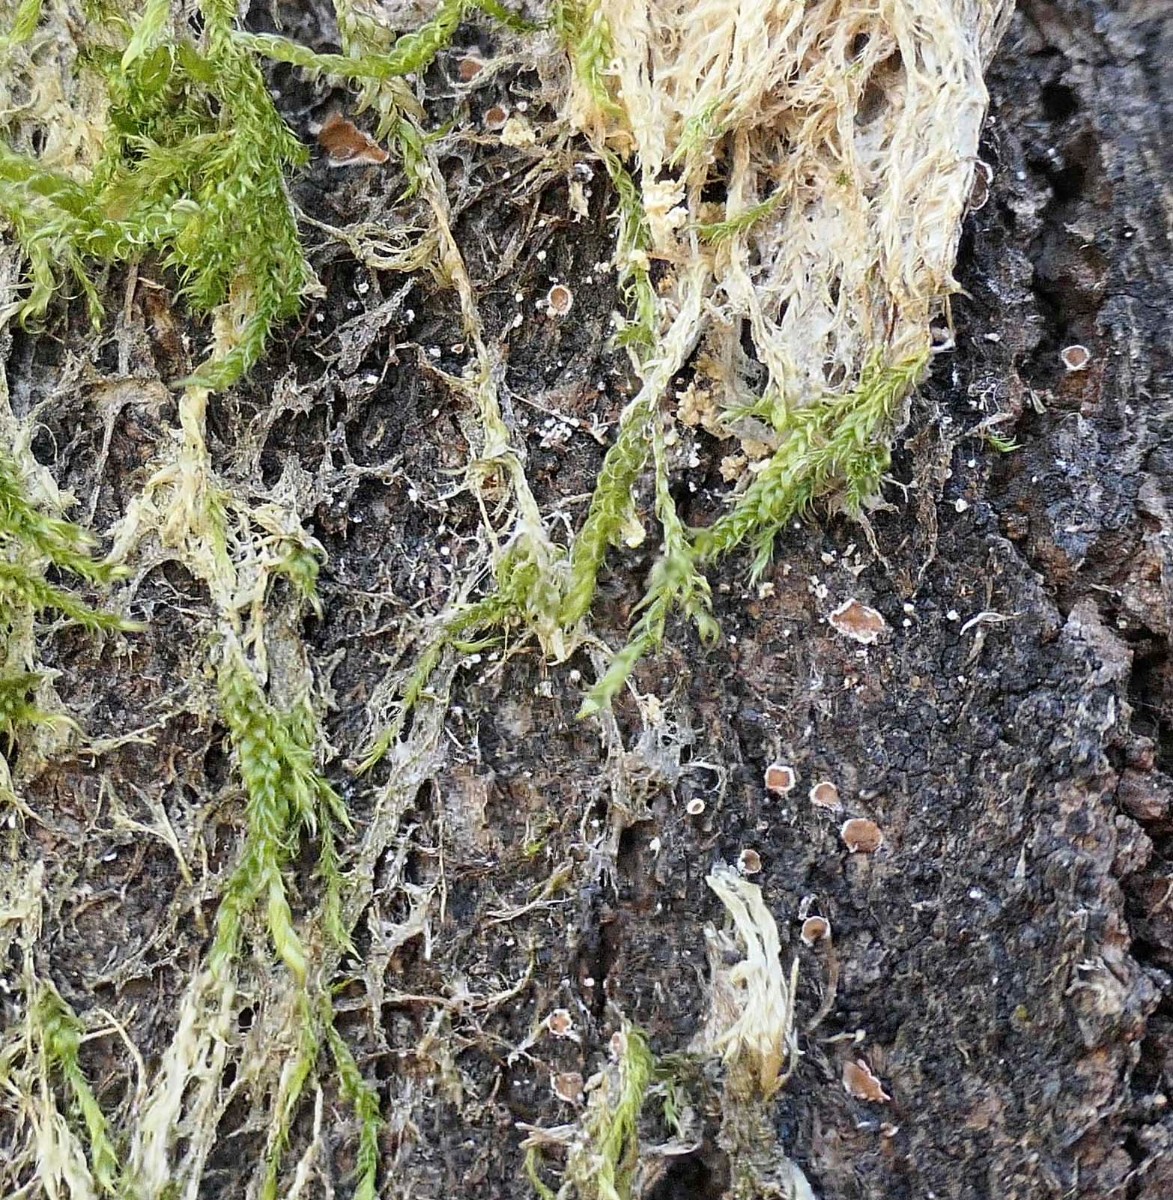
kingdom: Fungi
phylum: Basidiomycota
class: Agaricomycetes
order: Agaricales
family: Chromocyphellaceae
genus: Chromocyphella
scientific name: Chromocyphella muscicola
